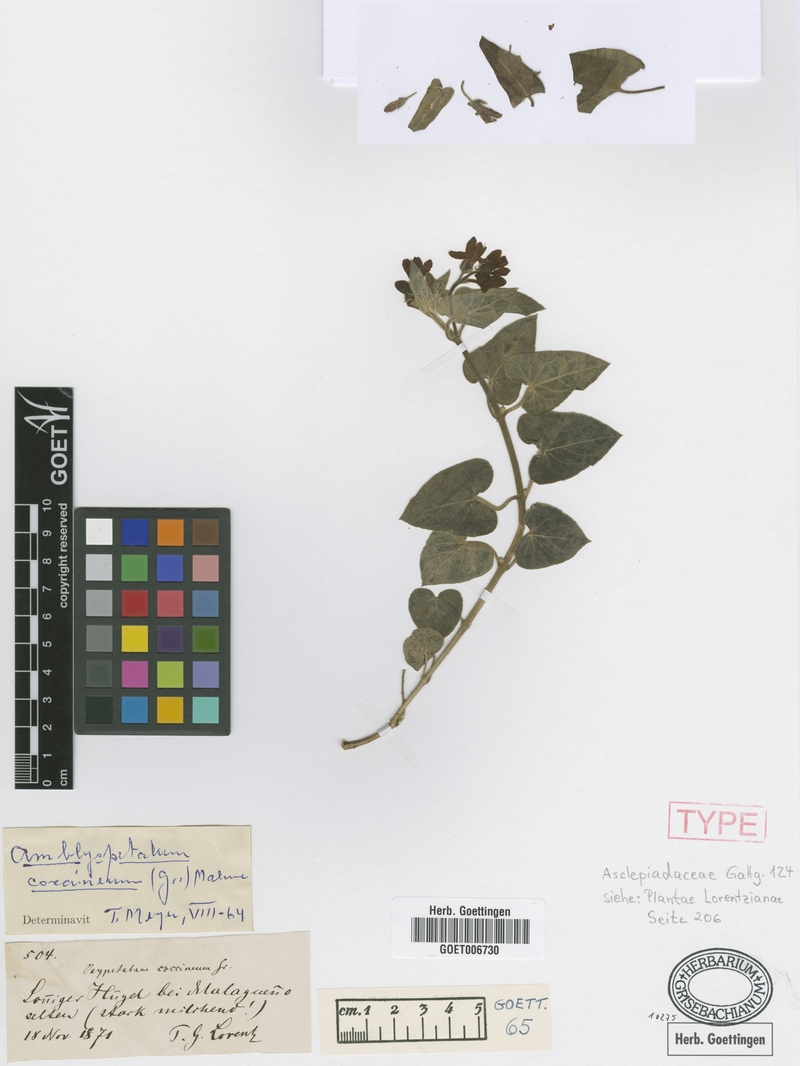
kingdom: Plantae
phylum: Tracheophyta
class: Magnoliopsida
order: Gentianales
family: Apocynaceae
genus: Oxypetalum
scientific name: Oxypetalum coccineum
